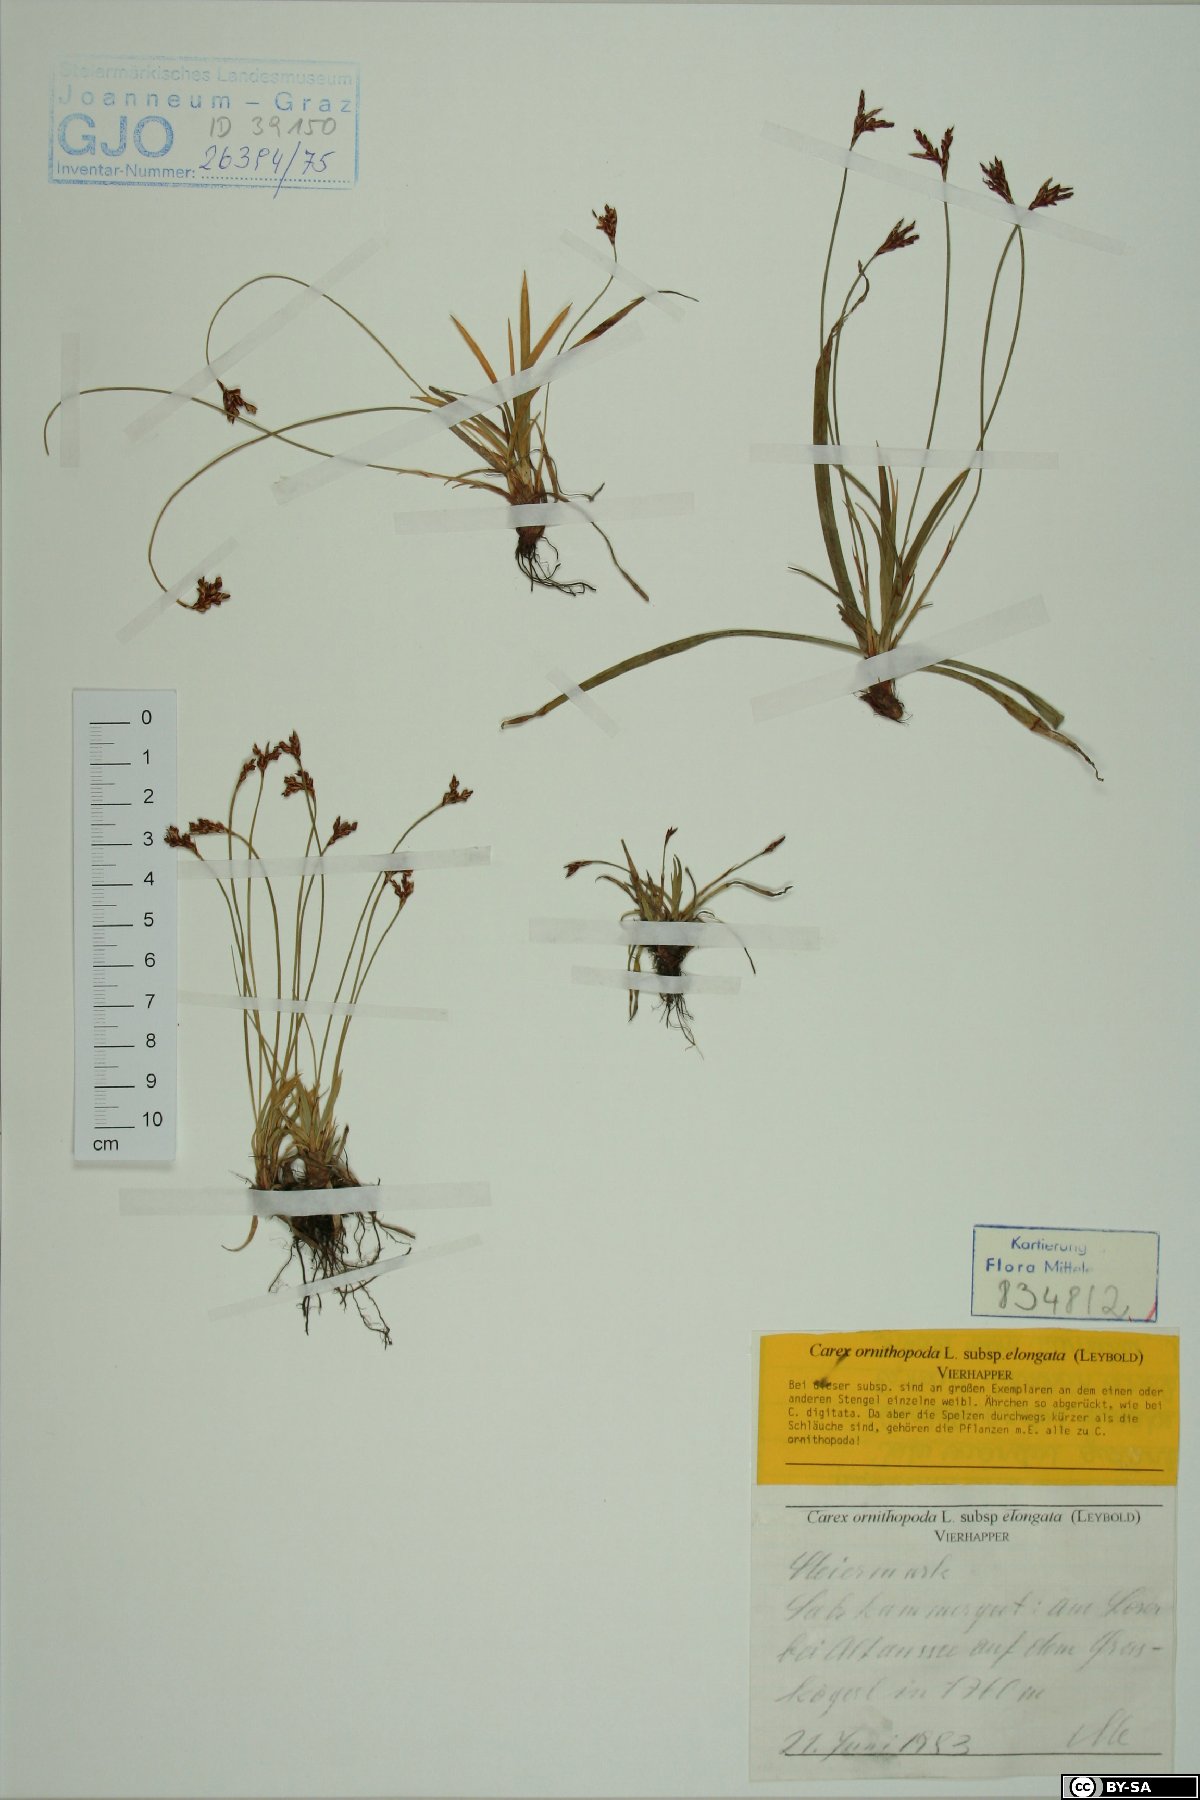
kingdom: Plantae
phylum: Tracheophyta
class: Liliopsida
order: Poales
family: Cyperaceae
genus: Carex
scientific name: Carex ornithopoda
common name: Bird's-foot sedge
